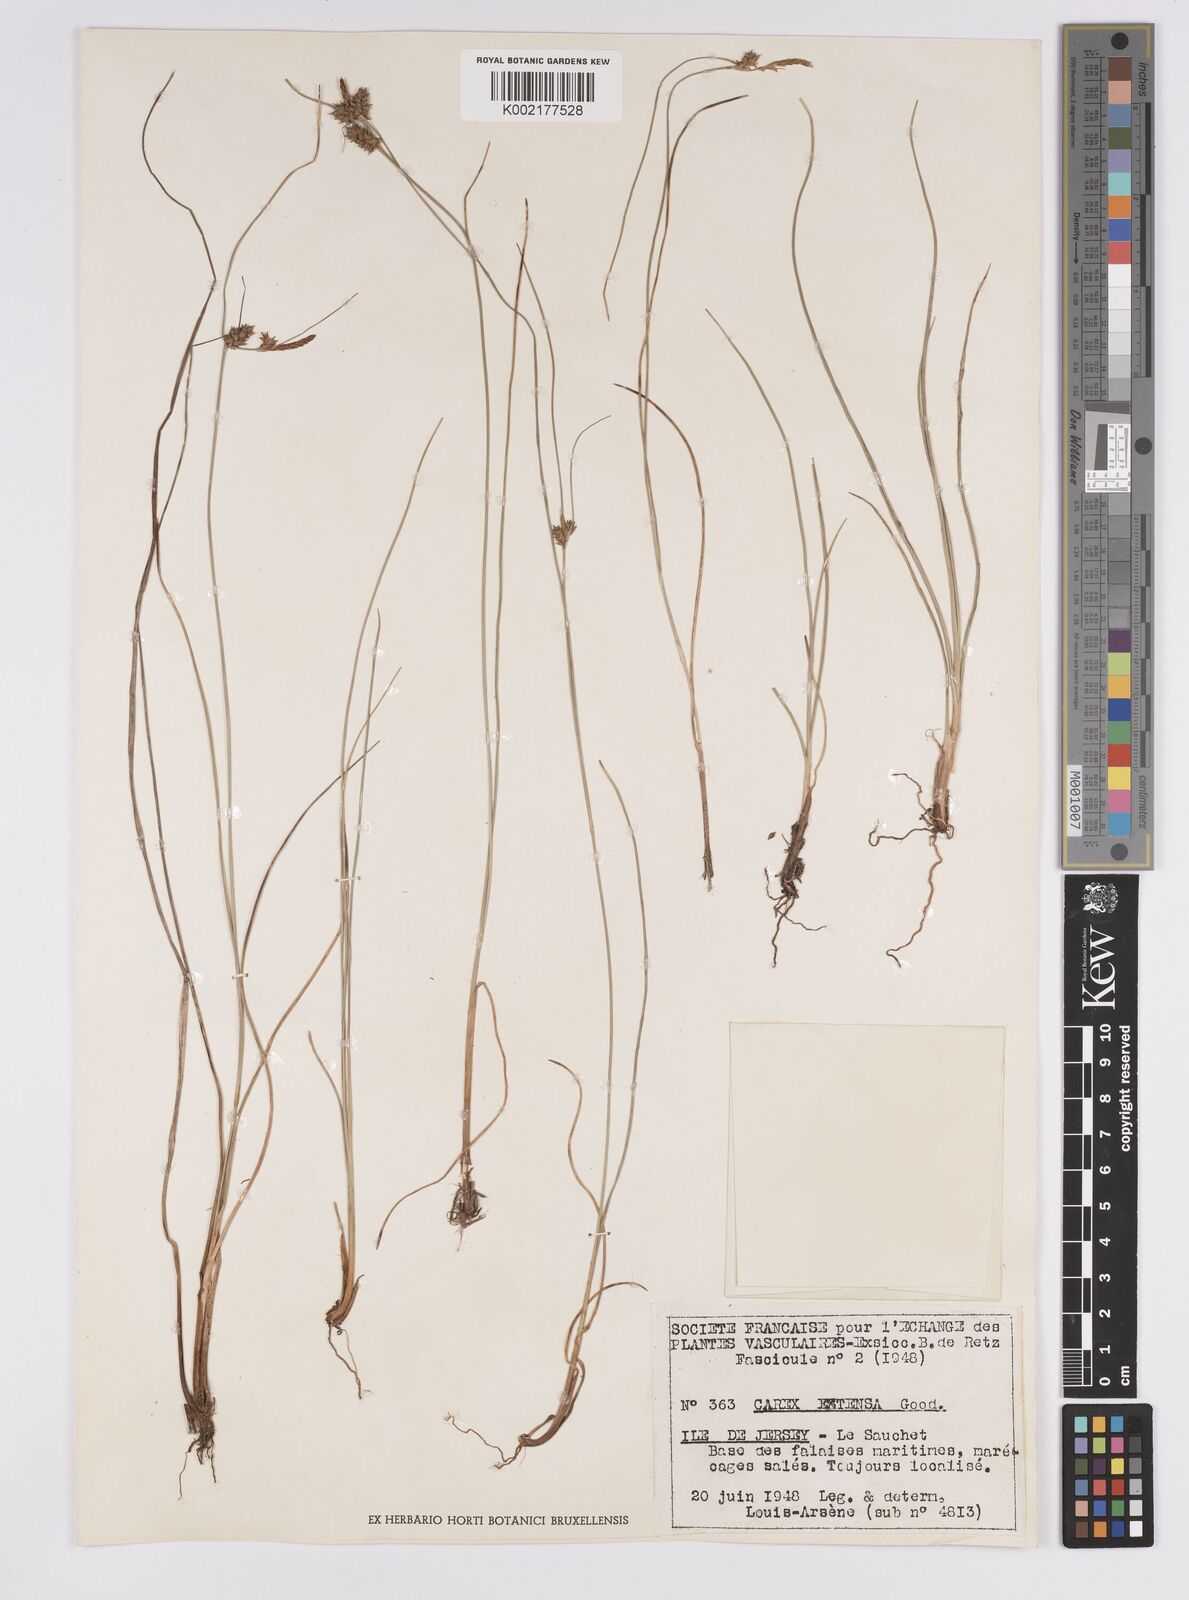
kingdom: Plantae
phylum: Tracheophyta
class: Liliopsida
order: Poales
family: Cyperaceae
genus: Carex
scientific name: Carex extensa
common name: Long-bracted sedge
